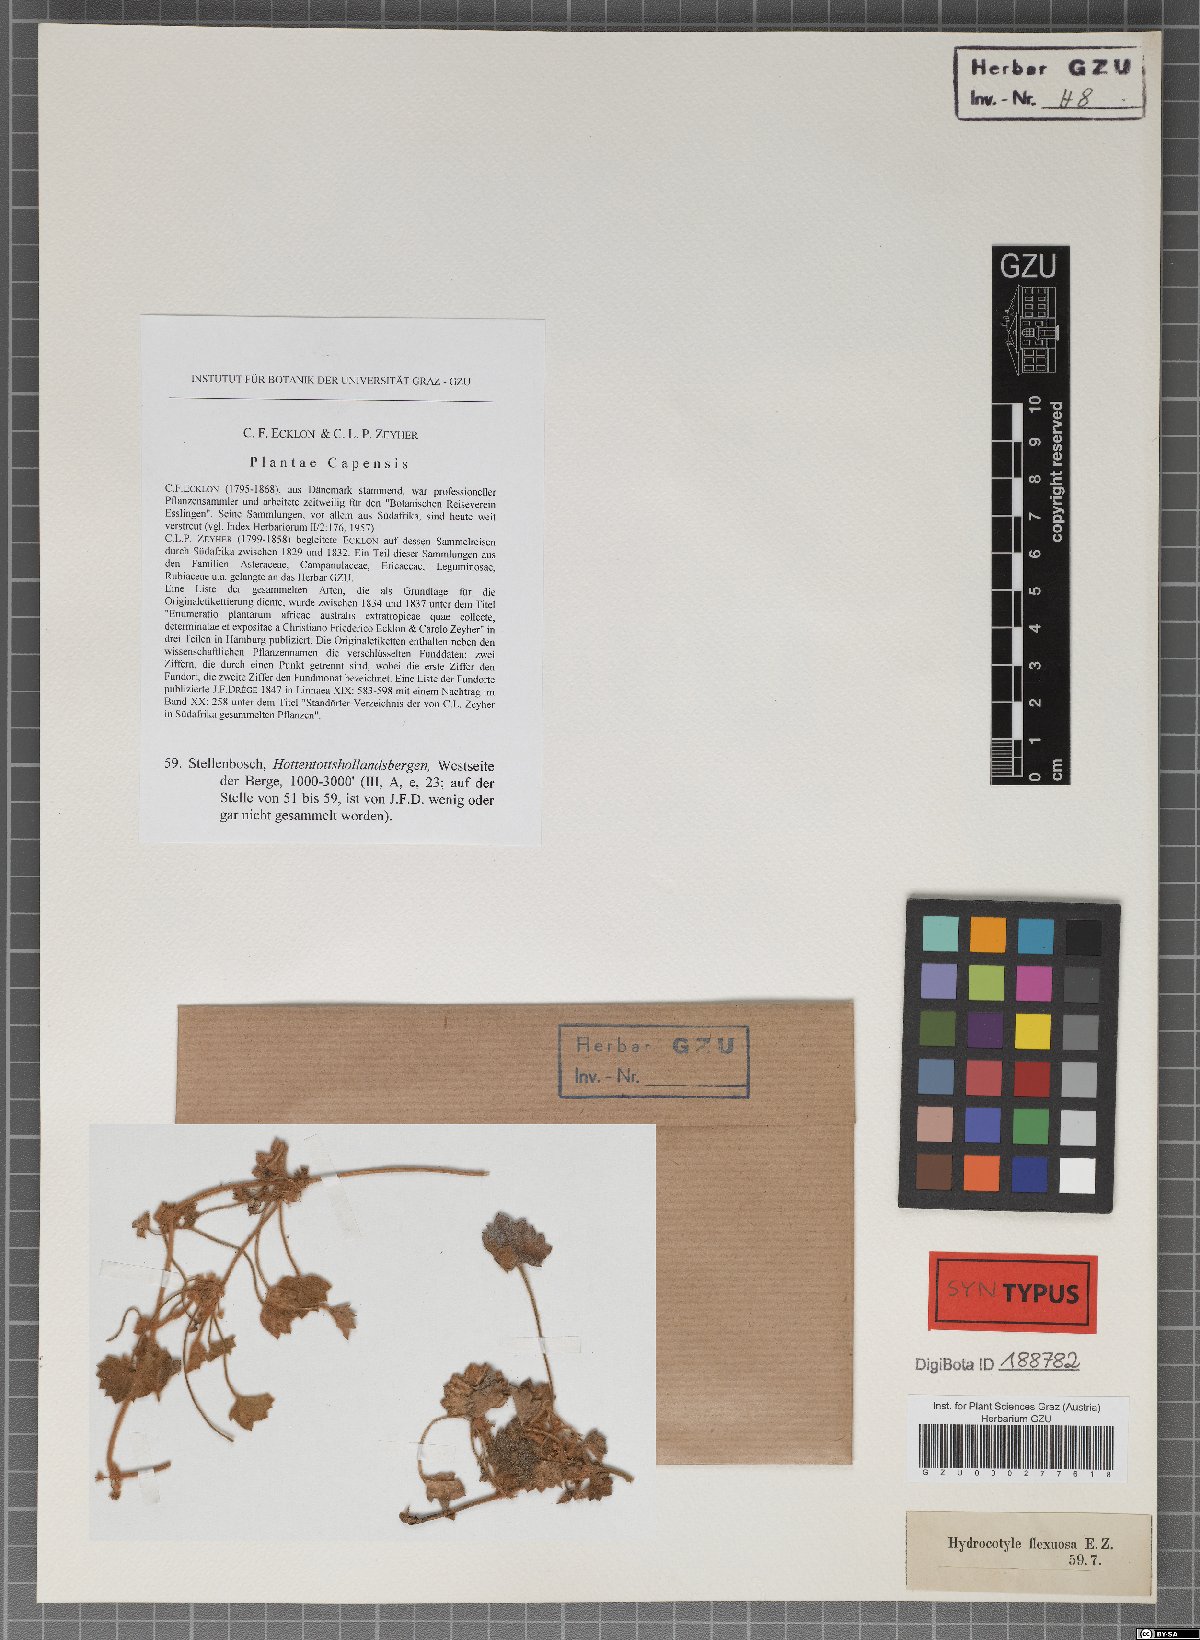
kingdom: Plantae
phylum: Tracheophyta
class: Magnoliopsida
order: Apiales
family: Apiaceae
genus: Centella
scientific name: Centella flexuosa
